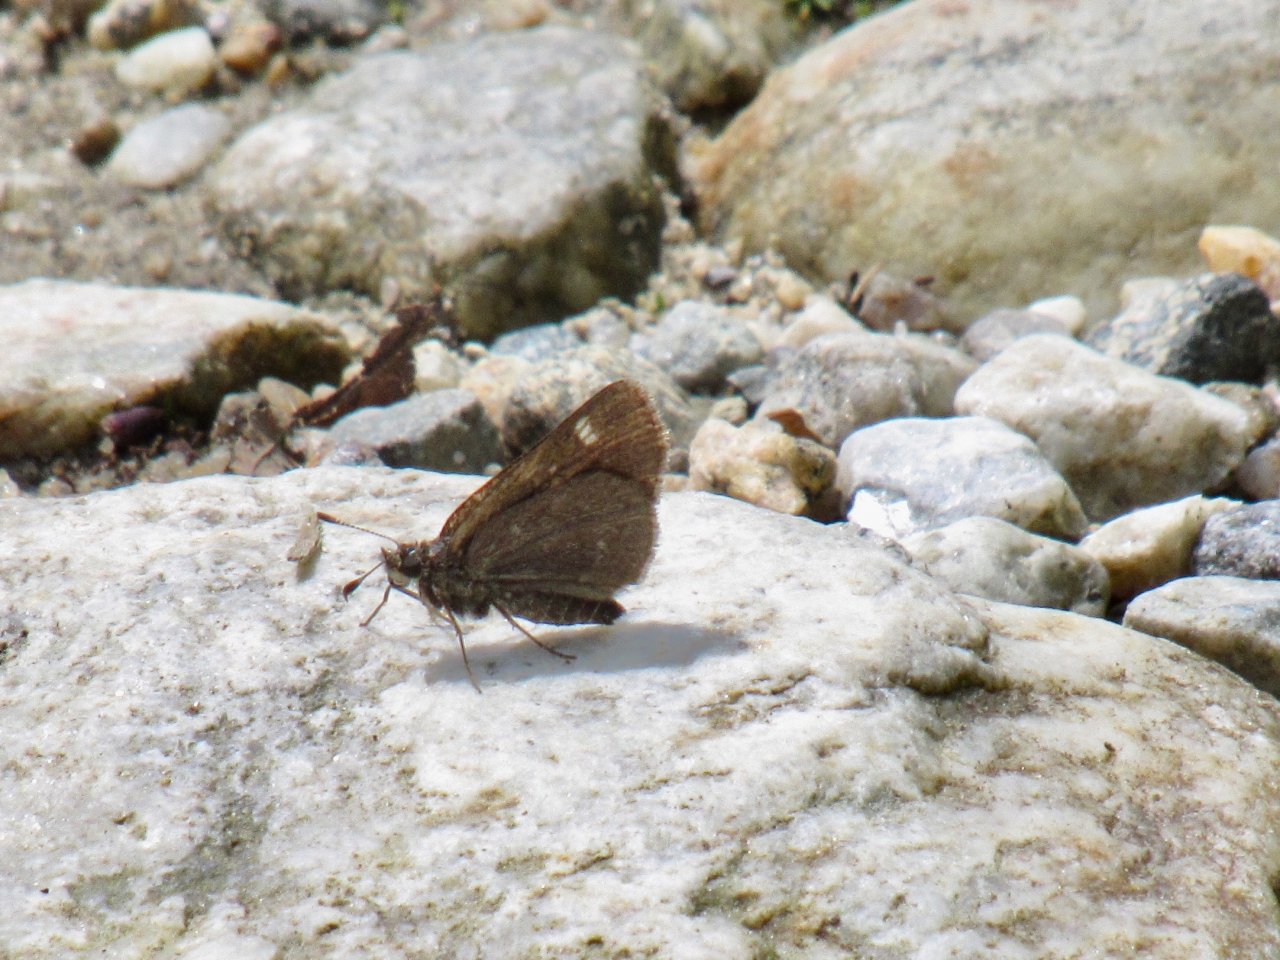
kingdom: Animalia
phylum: Arthropoda
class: Insecta
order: Lepidoptera
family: Hesperiidae
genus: Vernia
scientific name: Vernia verna
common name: Little Glassywing
